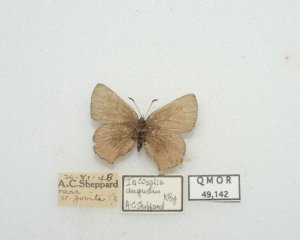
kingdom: Animalia
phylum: Arthropoda
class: Insecta
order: Lepidoptera
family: Lycaenidae
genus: Incisalia
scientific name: Incisalia irioides
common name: Brown Elfin
